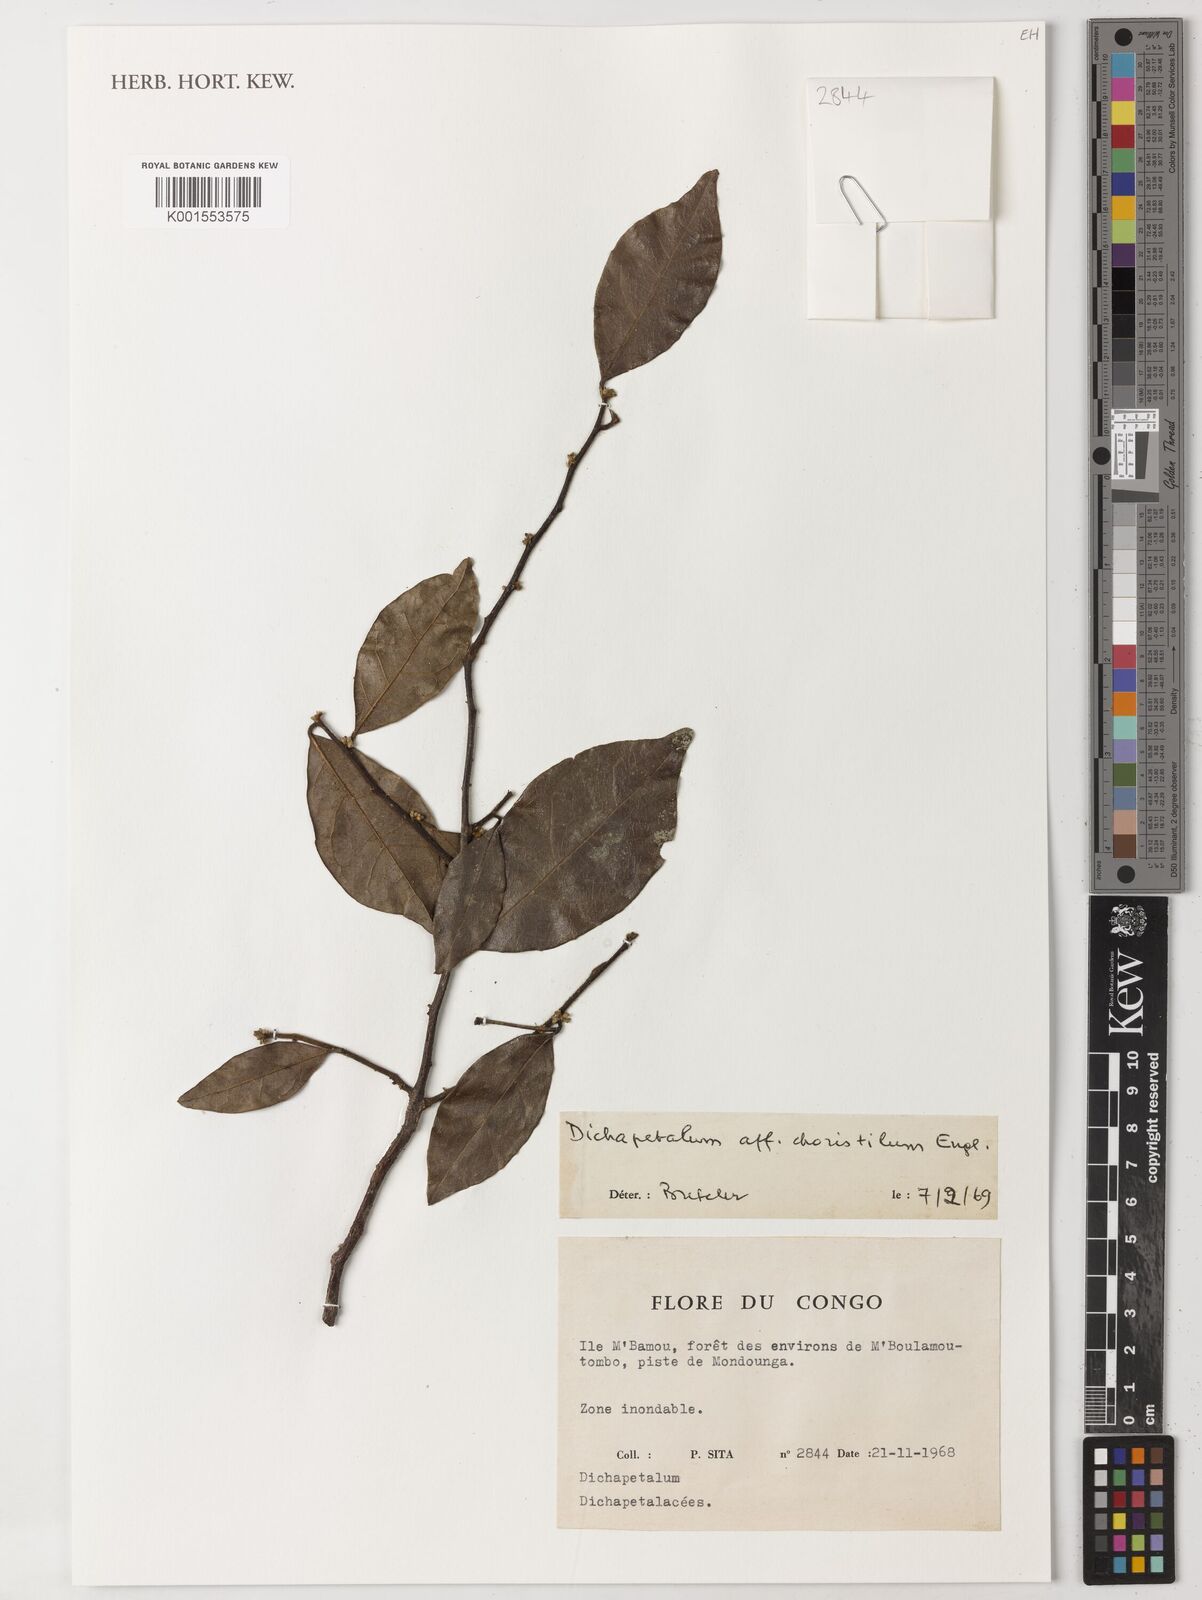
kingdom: Plantae
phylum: Tracheophyta
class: Magnoliopsida
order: Malpighiales
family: Dichapetalaceae
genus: Dichapetalum
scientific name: Dichapetalum choristilum
